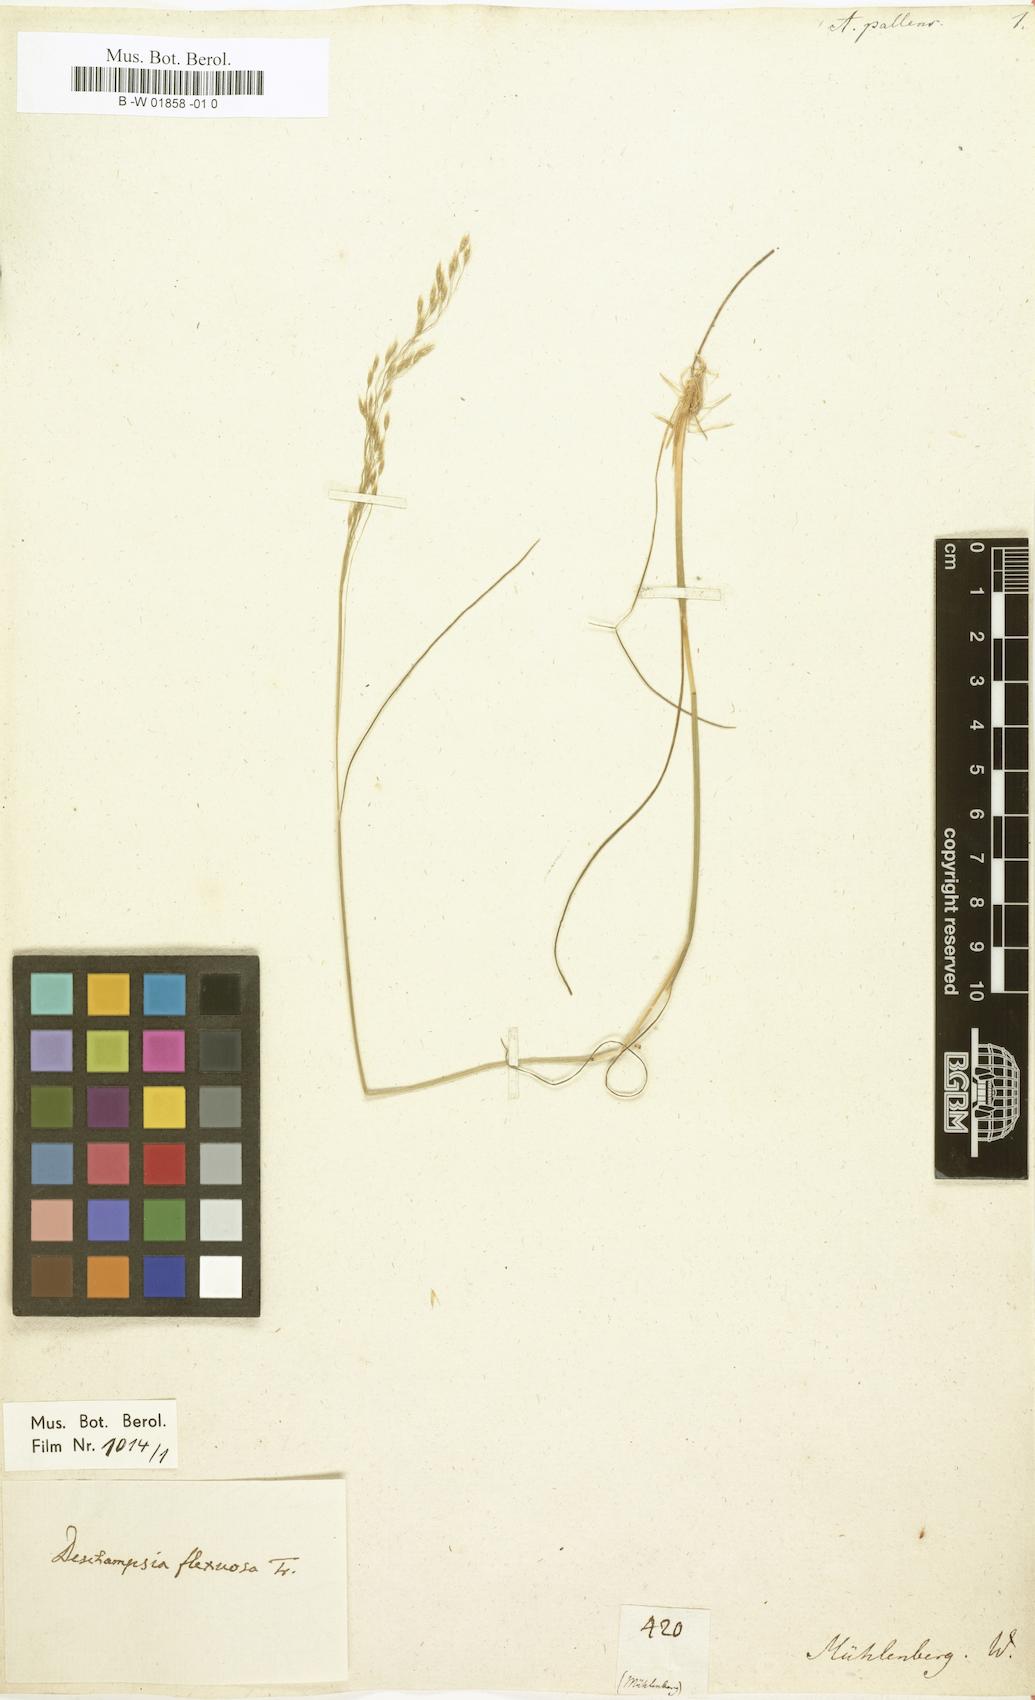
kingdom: Plantae
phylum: Tracheophyta
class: Liliopsida
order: Poales
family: Poaceae
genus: Sphenopholis
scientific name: Sphenopholis pallens
